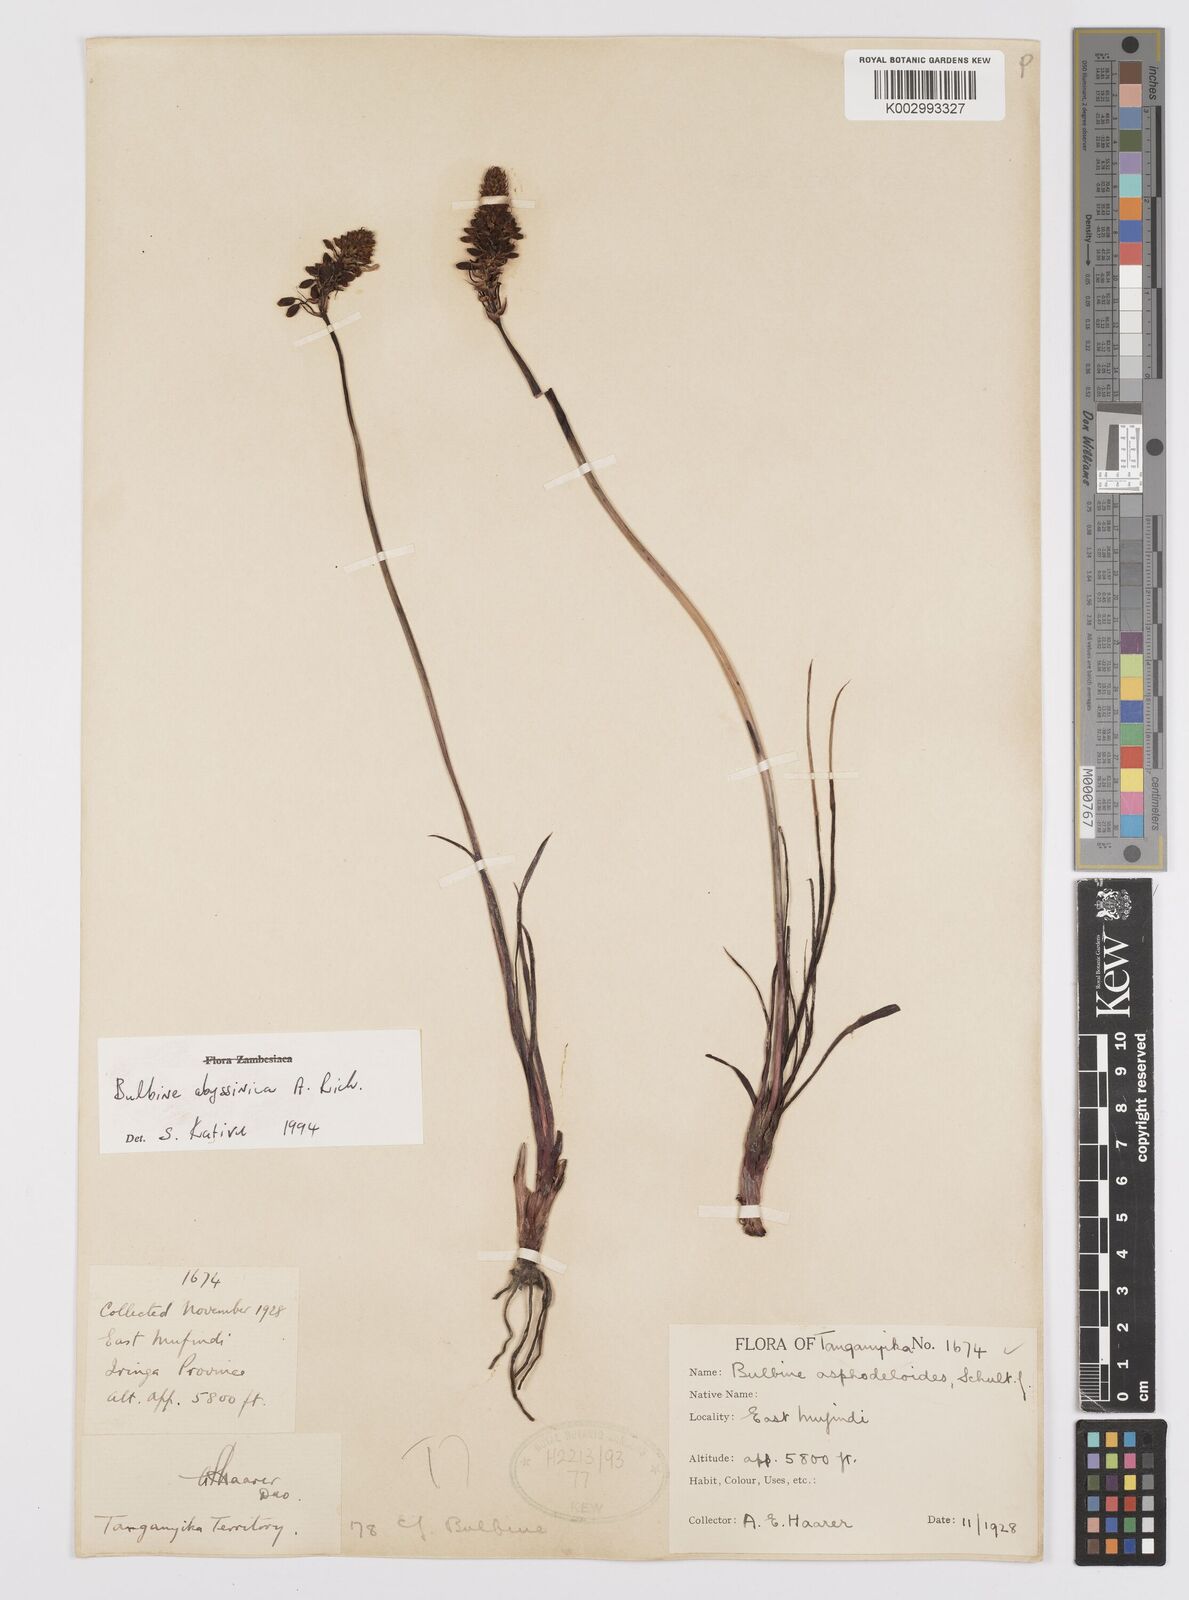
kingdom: Plantae
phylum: Tracheophyta
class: Liliopsida
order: Asparagales
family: Asphodelaceae
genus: Bulbine
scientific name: Bulbine abyssinica
